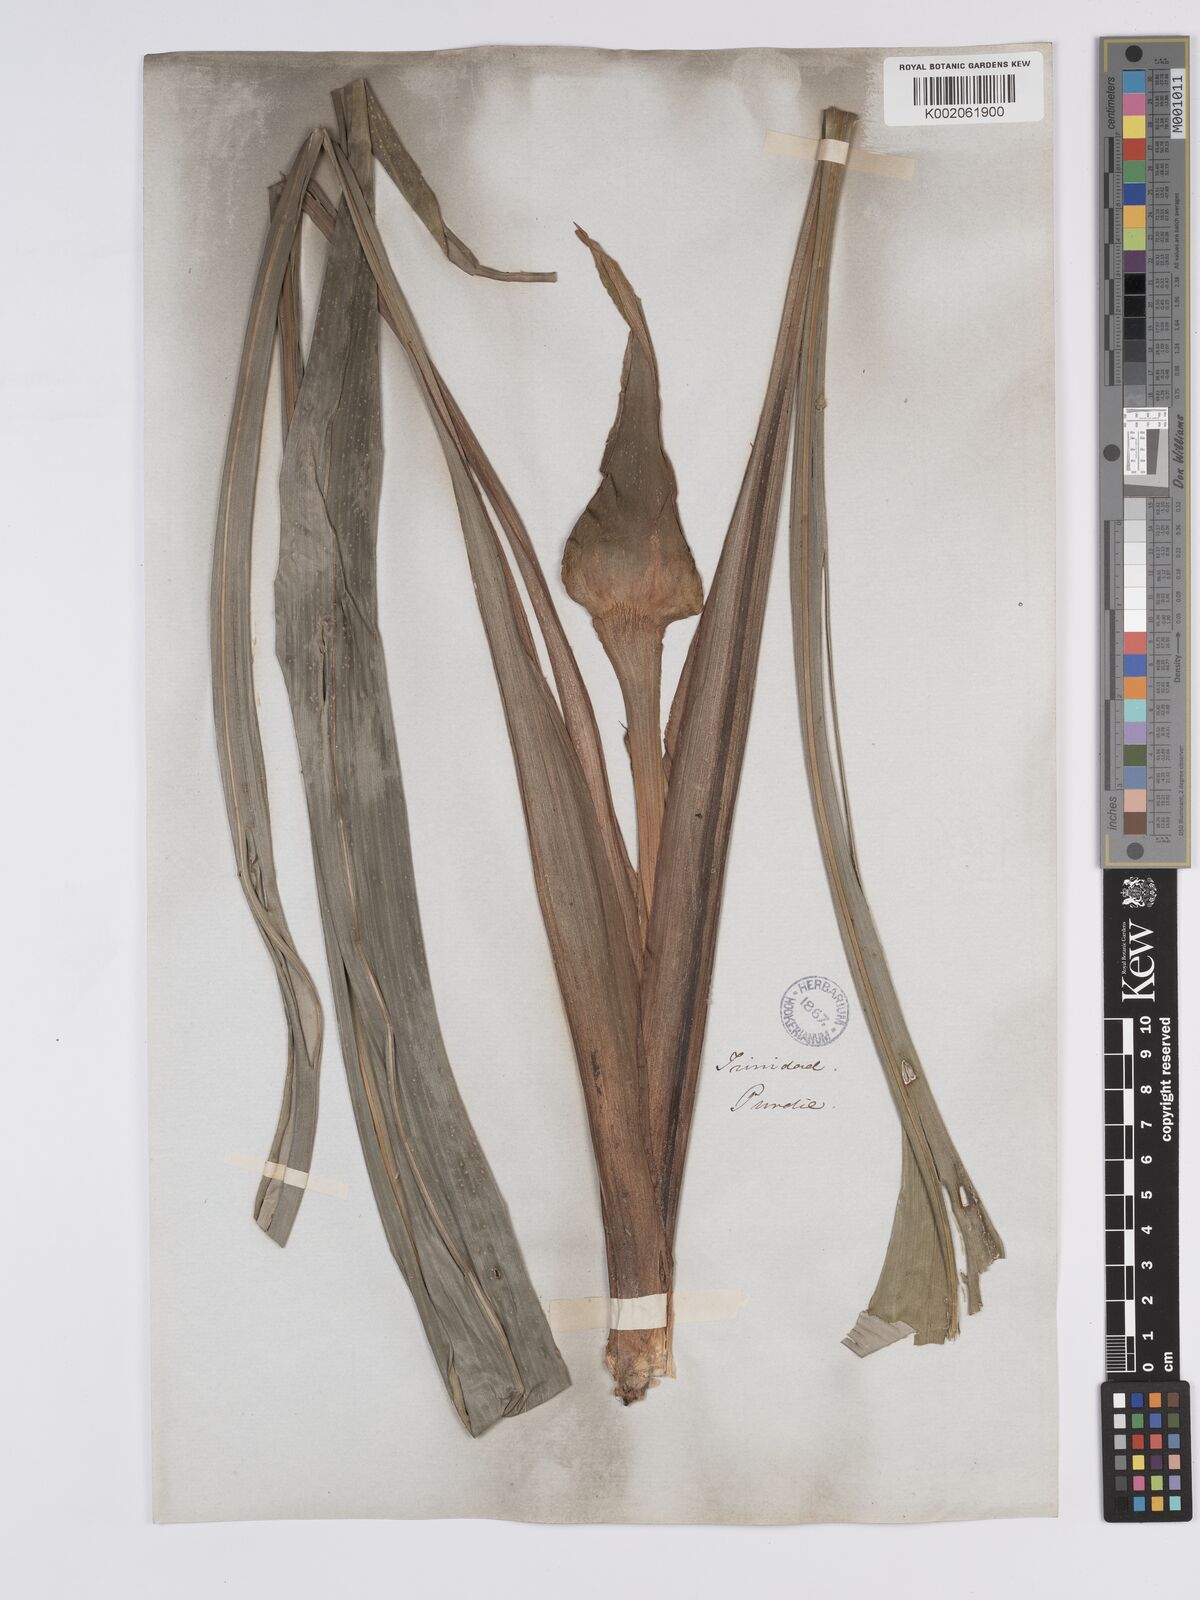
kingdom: Plantae
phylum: Tracheophyta
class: Liliopsida
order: Poales
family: Rapateaceae
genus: Rapatea
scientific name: Rapatea paludosa
